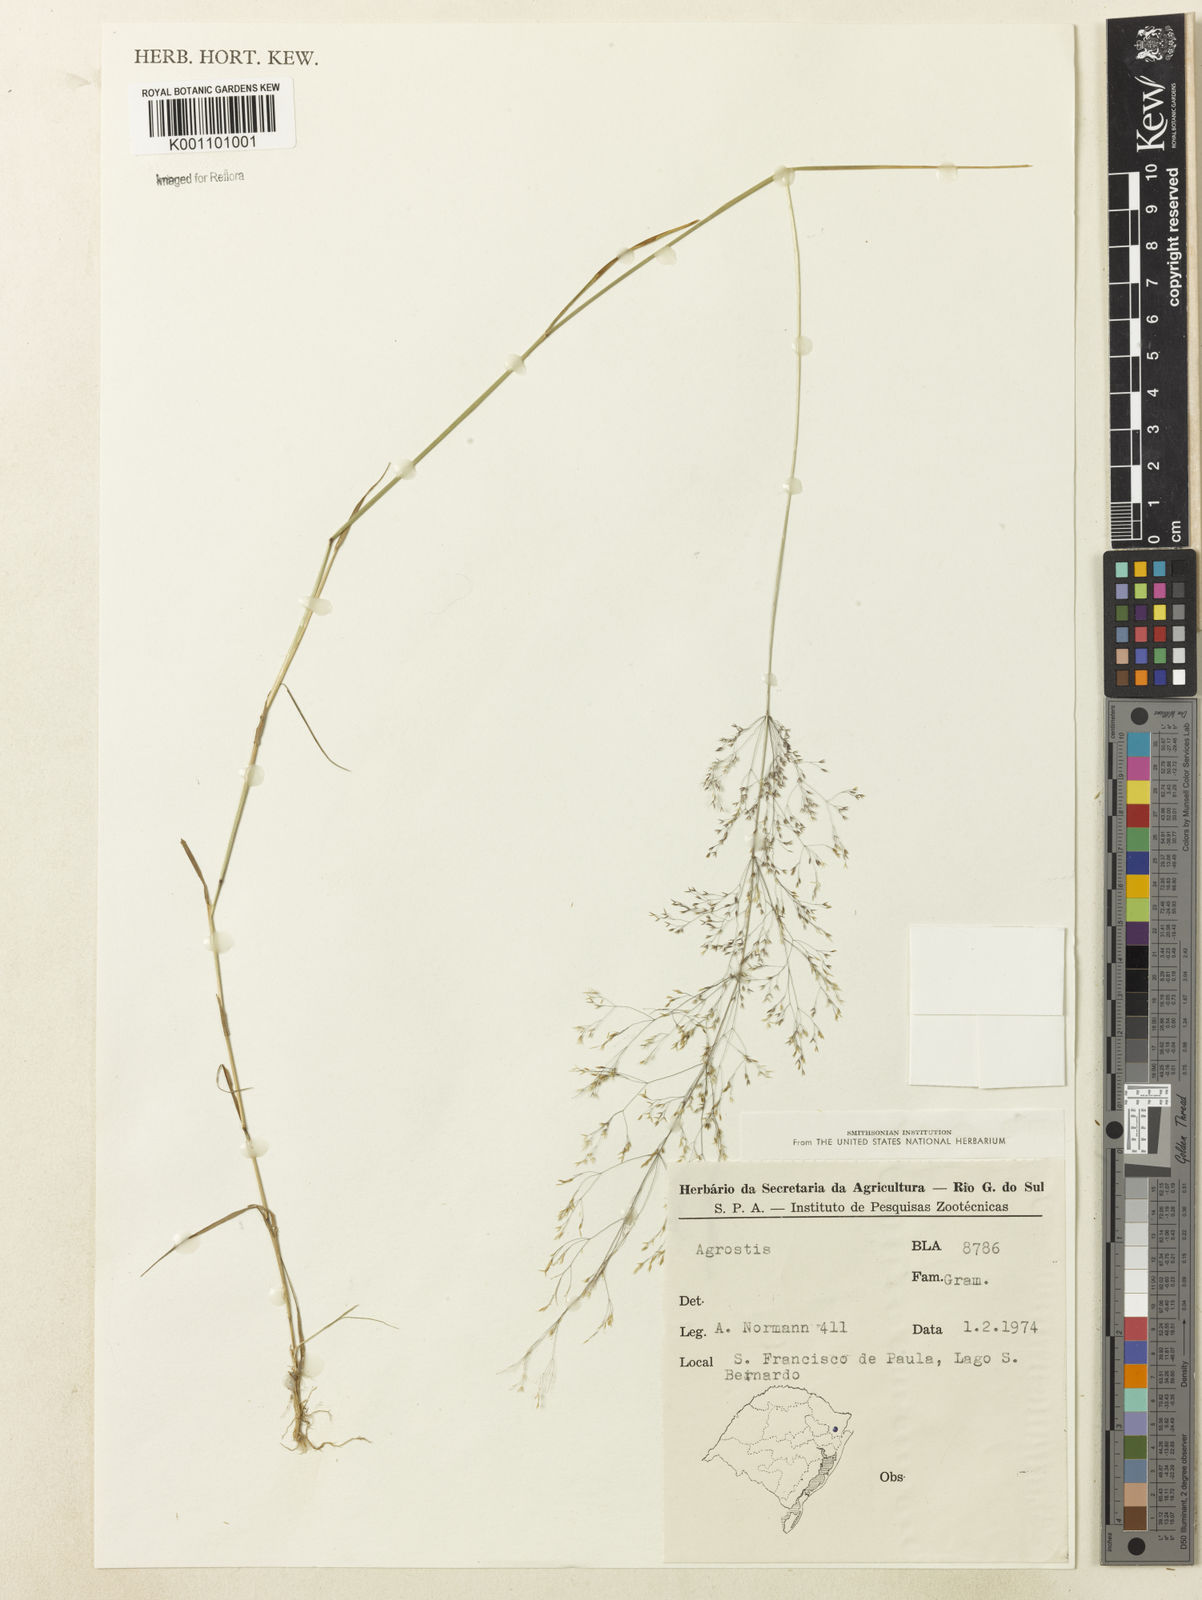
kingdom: Plantae
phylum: Tracheophyta
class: Liliopsida
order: Poales
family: Poaceae
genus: Agrostis
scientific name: Agrostis
